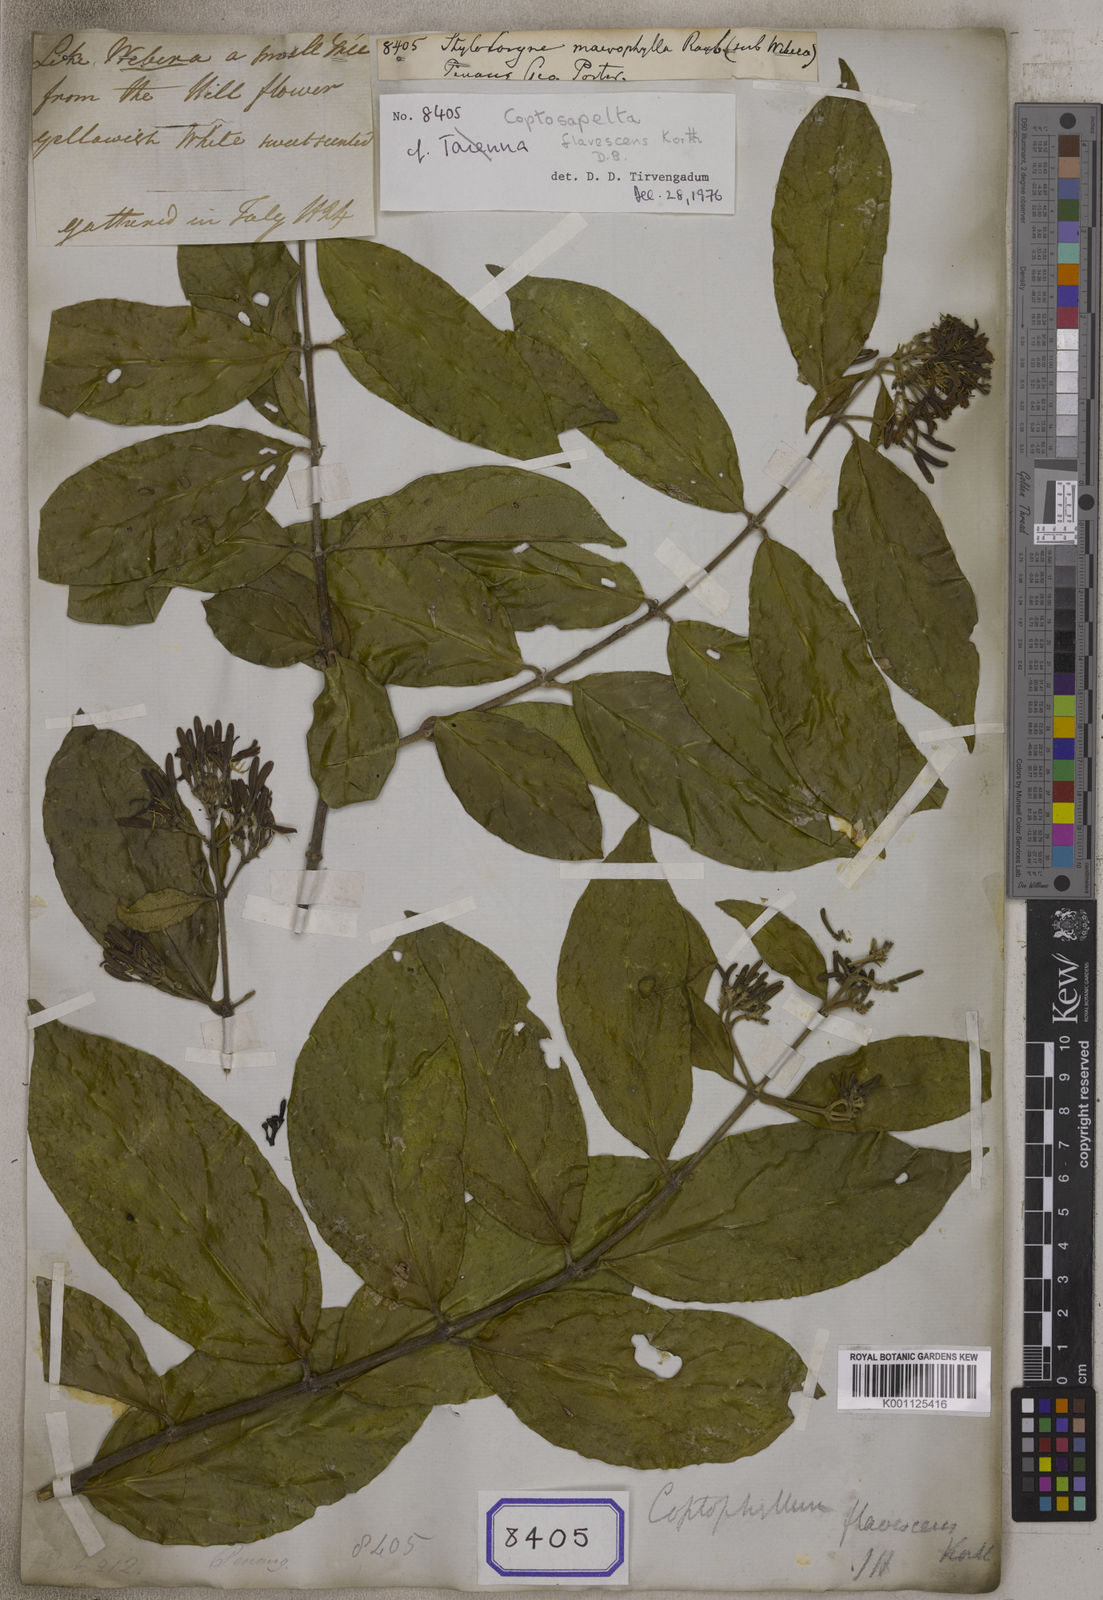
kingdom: Plantae
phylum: Tracheophyta
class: Magnoliopsida
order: Gentianales
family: Rubiaceae
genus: Aidia
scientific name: Aidia
